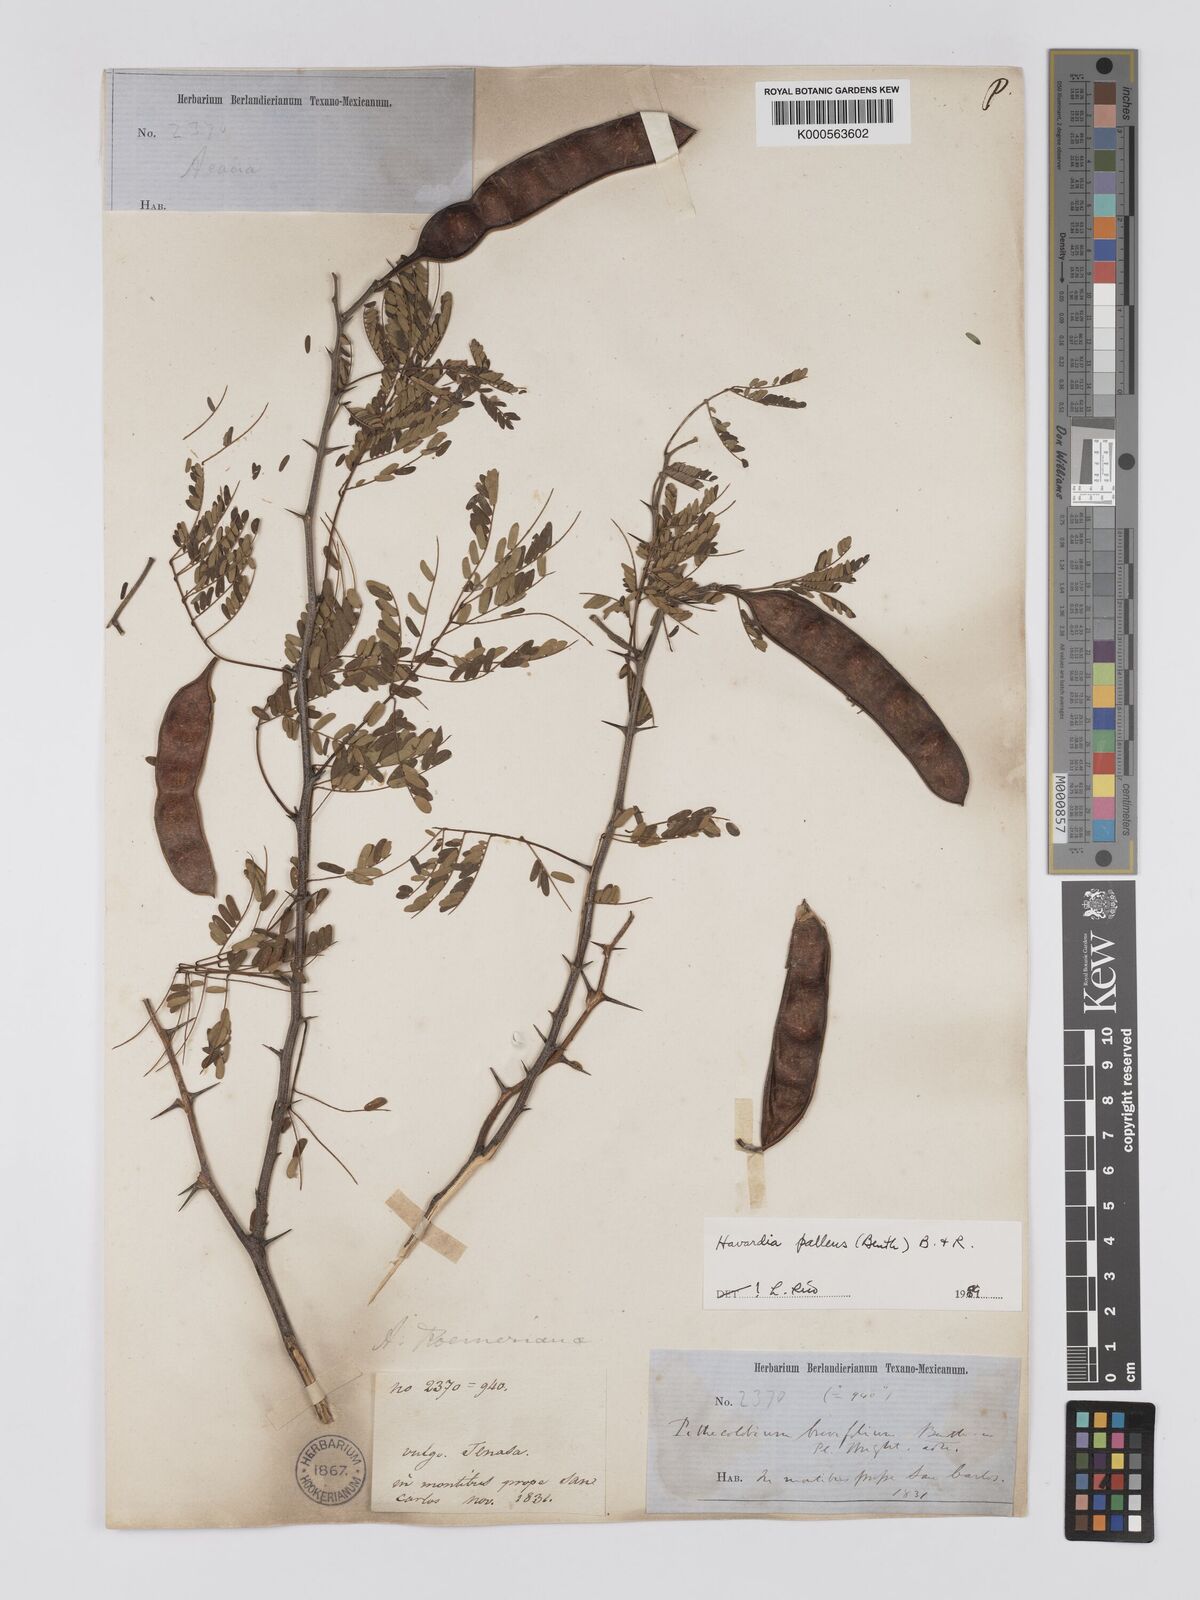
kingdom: Plantae
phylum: Tracheophyta
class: Magnoliopsida
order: Fabales
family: Fabaceae
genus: Havardia
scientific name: Havardia albicans
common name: Huisache
